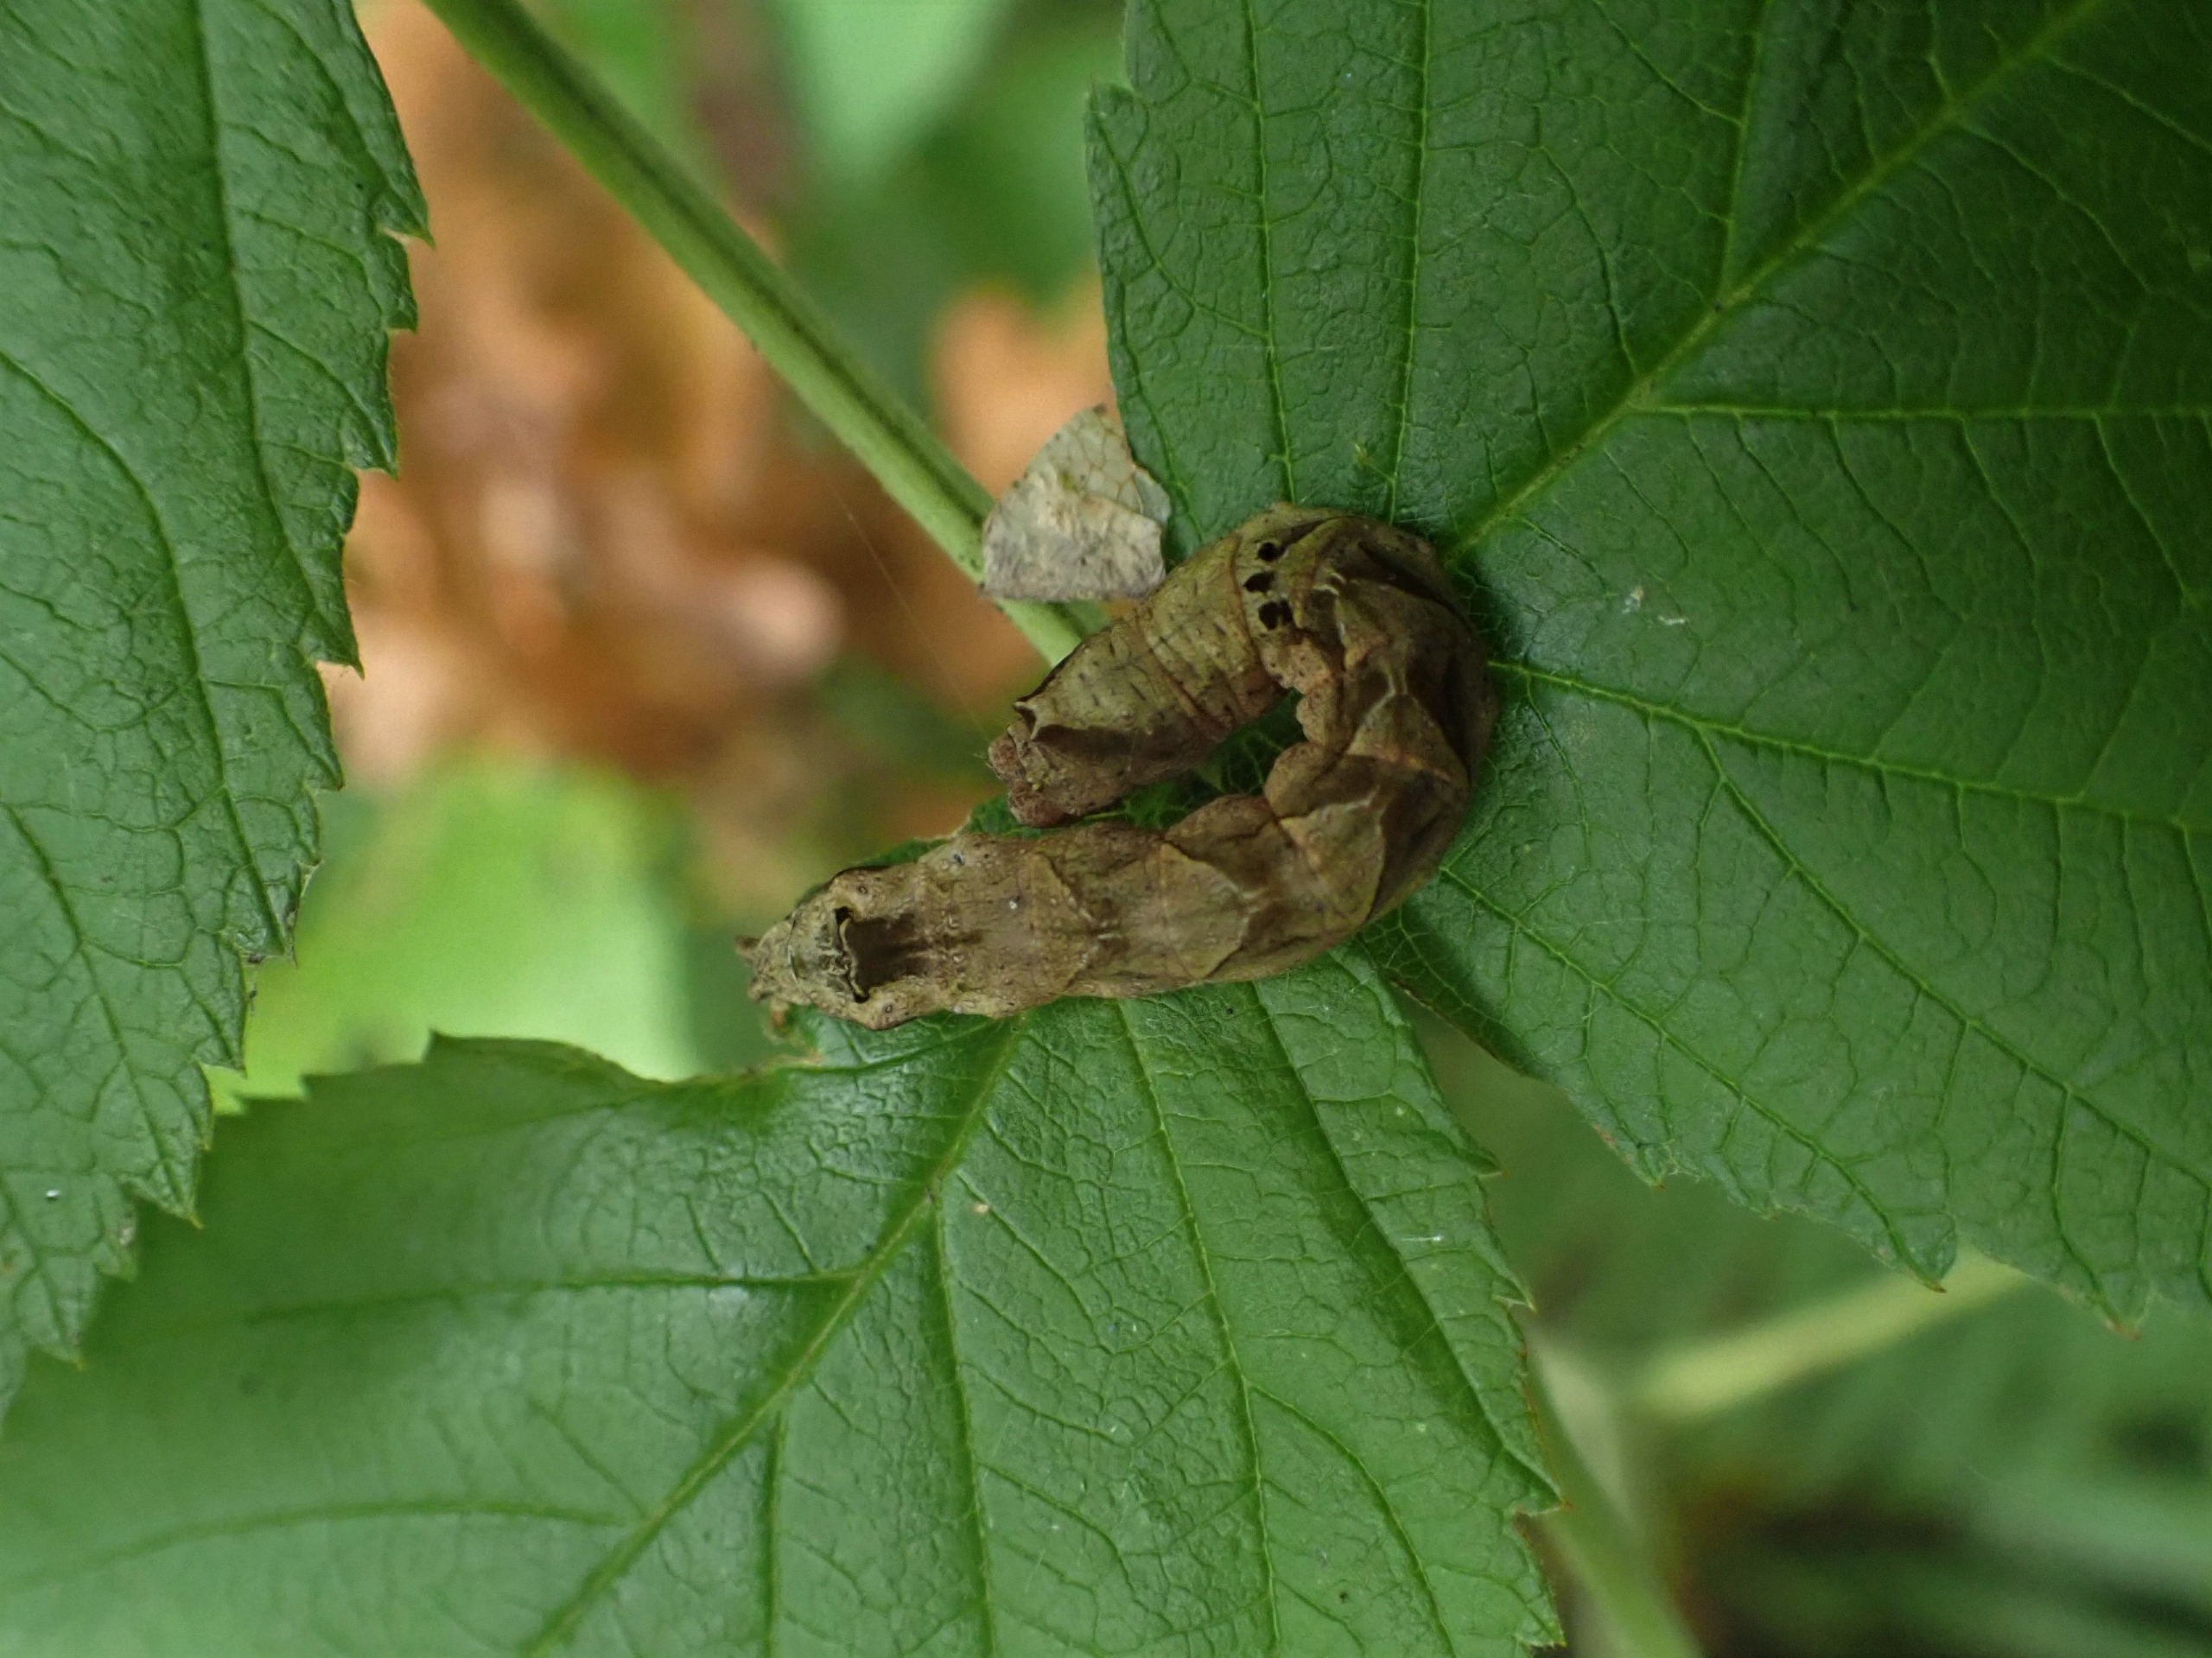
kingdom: Animalia
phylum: Arthropoda
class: Insecta
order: Lepidoptera
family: Drepanidae
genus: Thyatira
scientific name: Thyatira batis
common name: Rosenplet
